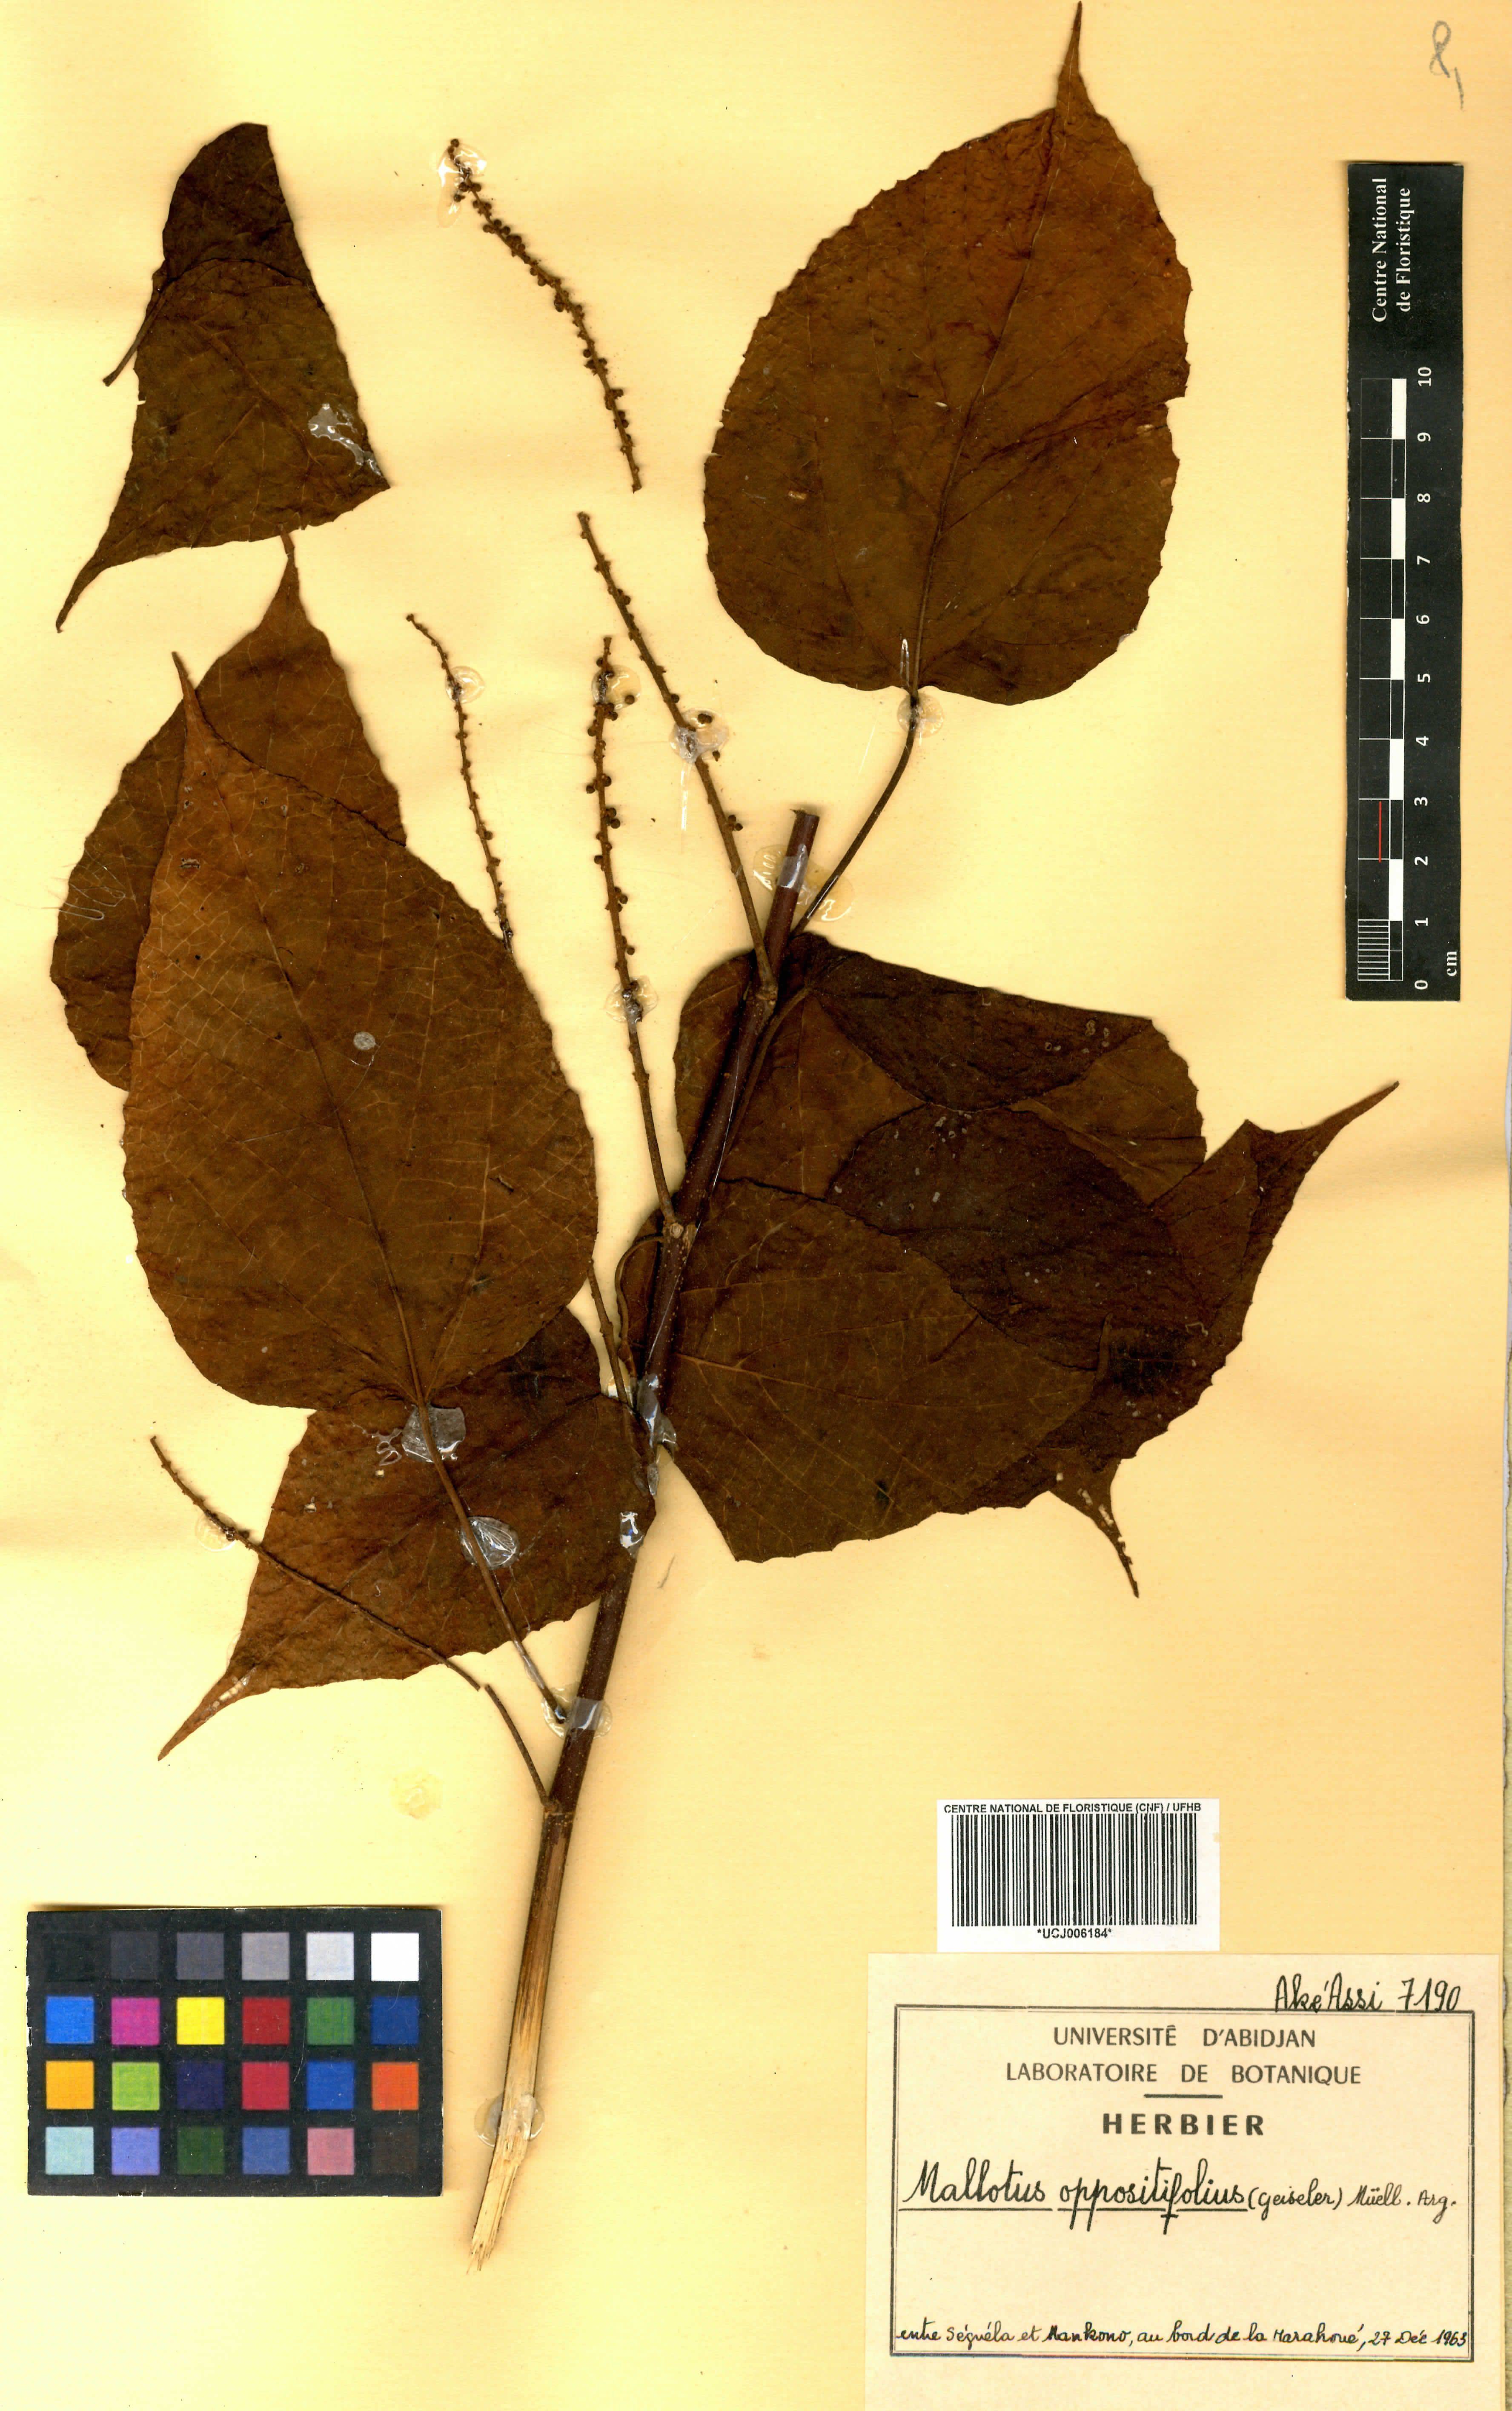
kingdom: Plantae
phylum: Tracheophyta
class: Magnoliopsida
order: Malpighiales
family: Euphorbiaceae
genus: Mallotus
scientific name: Mallotus oppositifolius
